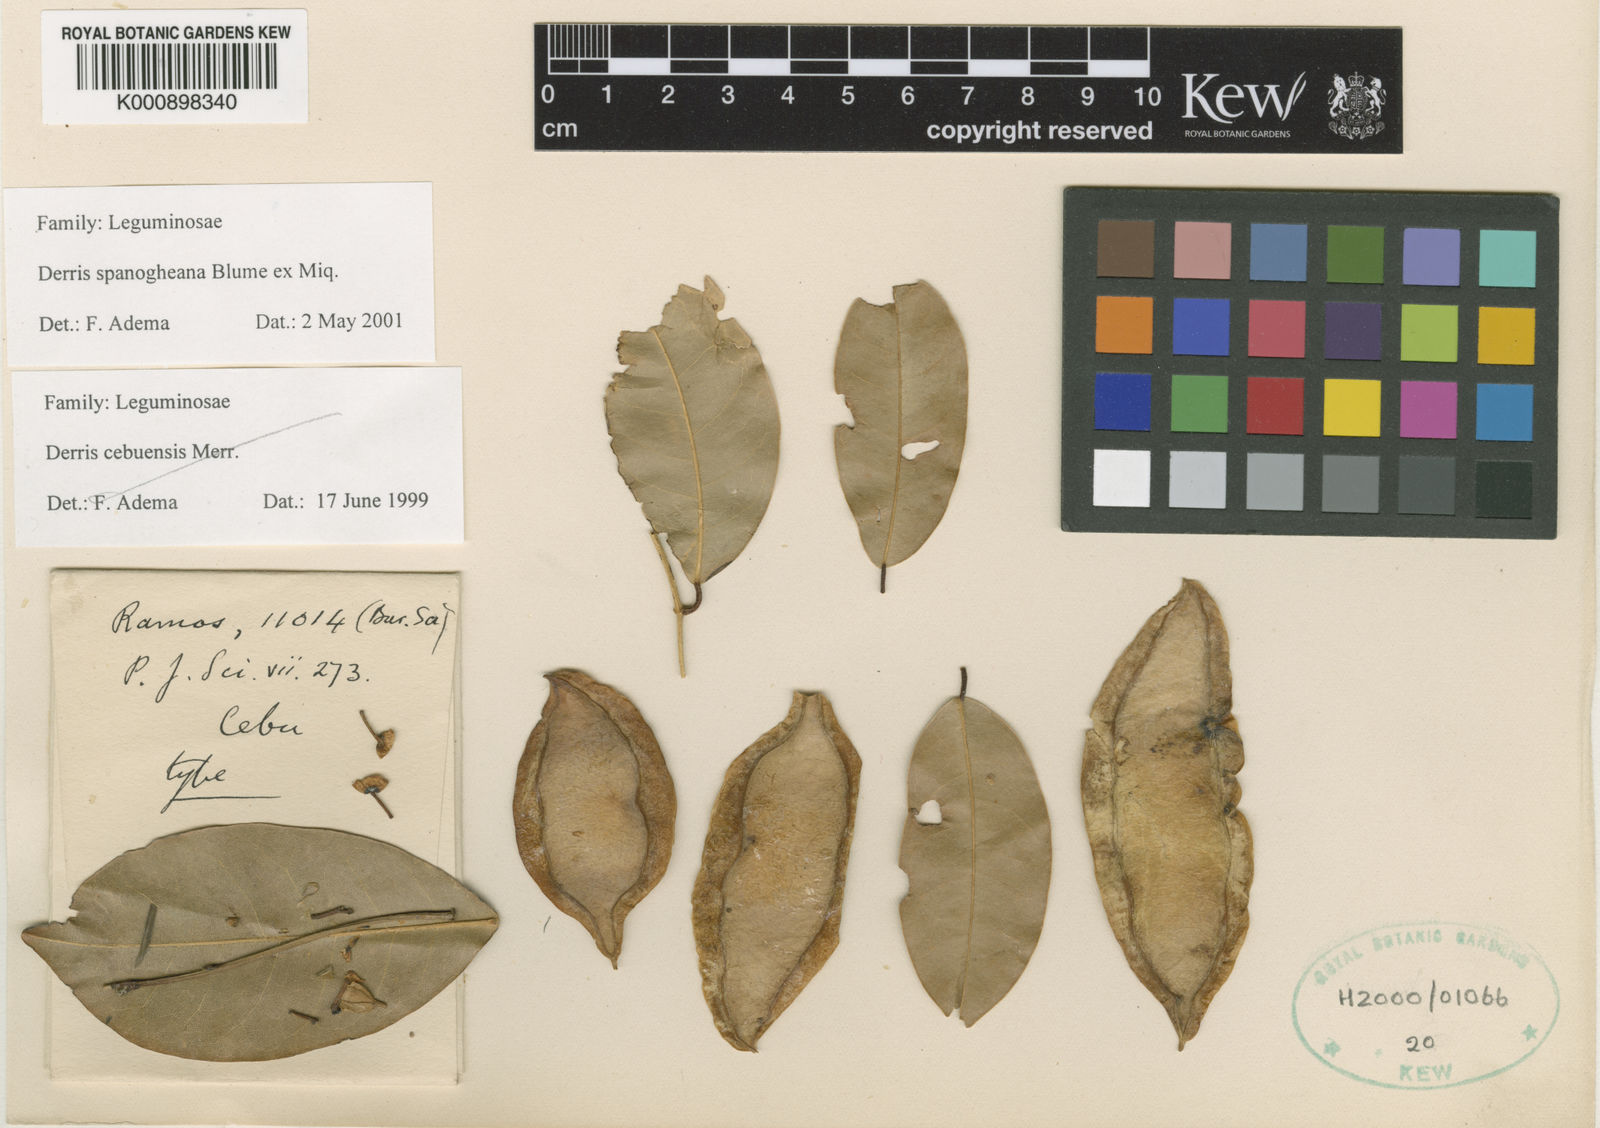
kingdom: Plantae
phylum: Tracheophyta
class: Magnoliopsida
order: Fabales
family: Fabaceae
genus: Derris
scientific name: Derris spanogheana
